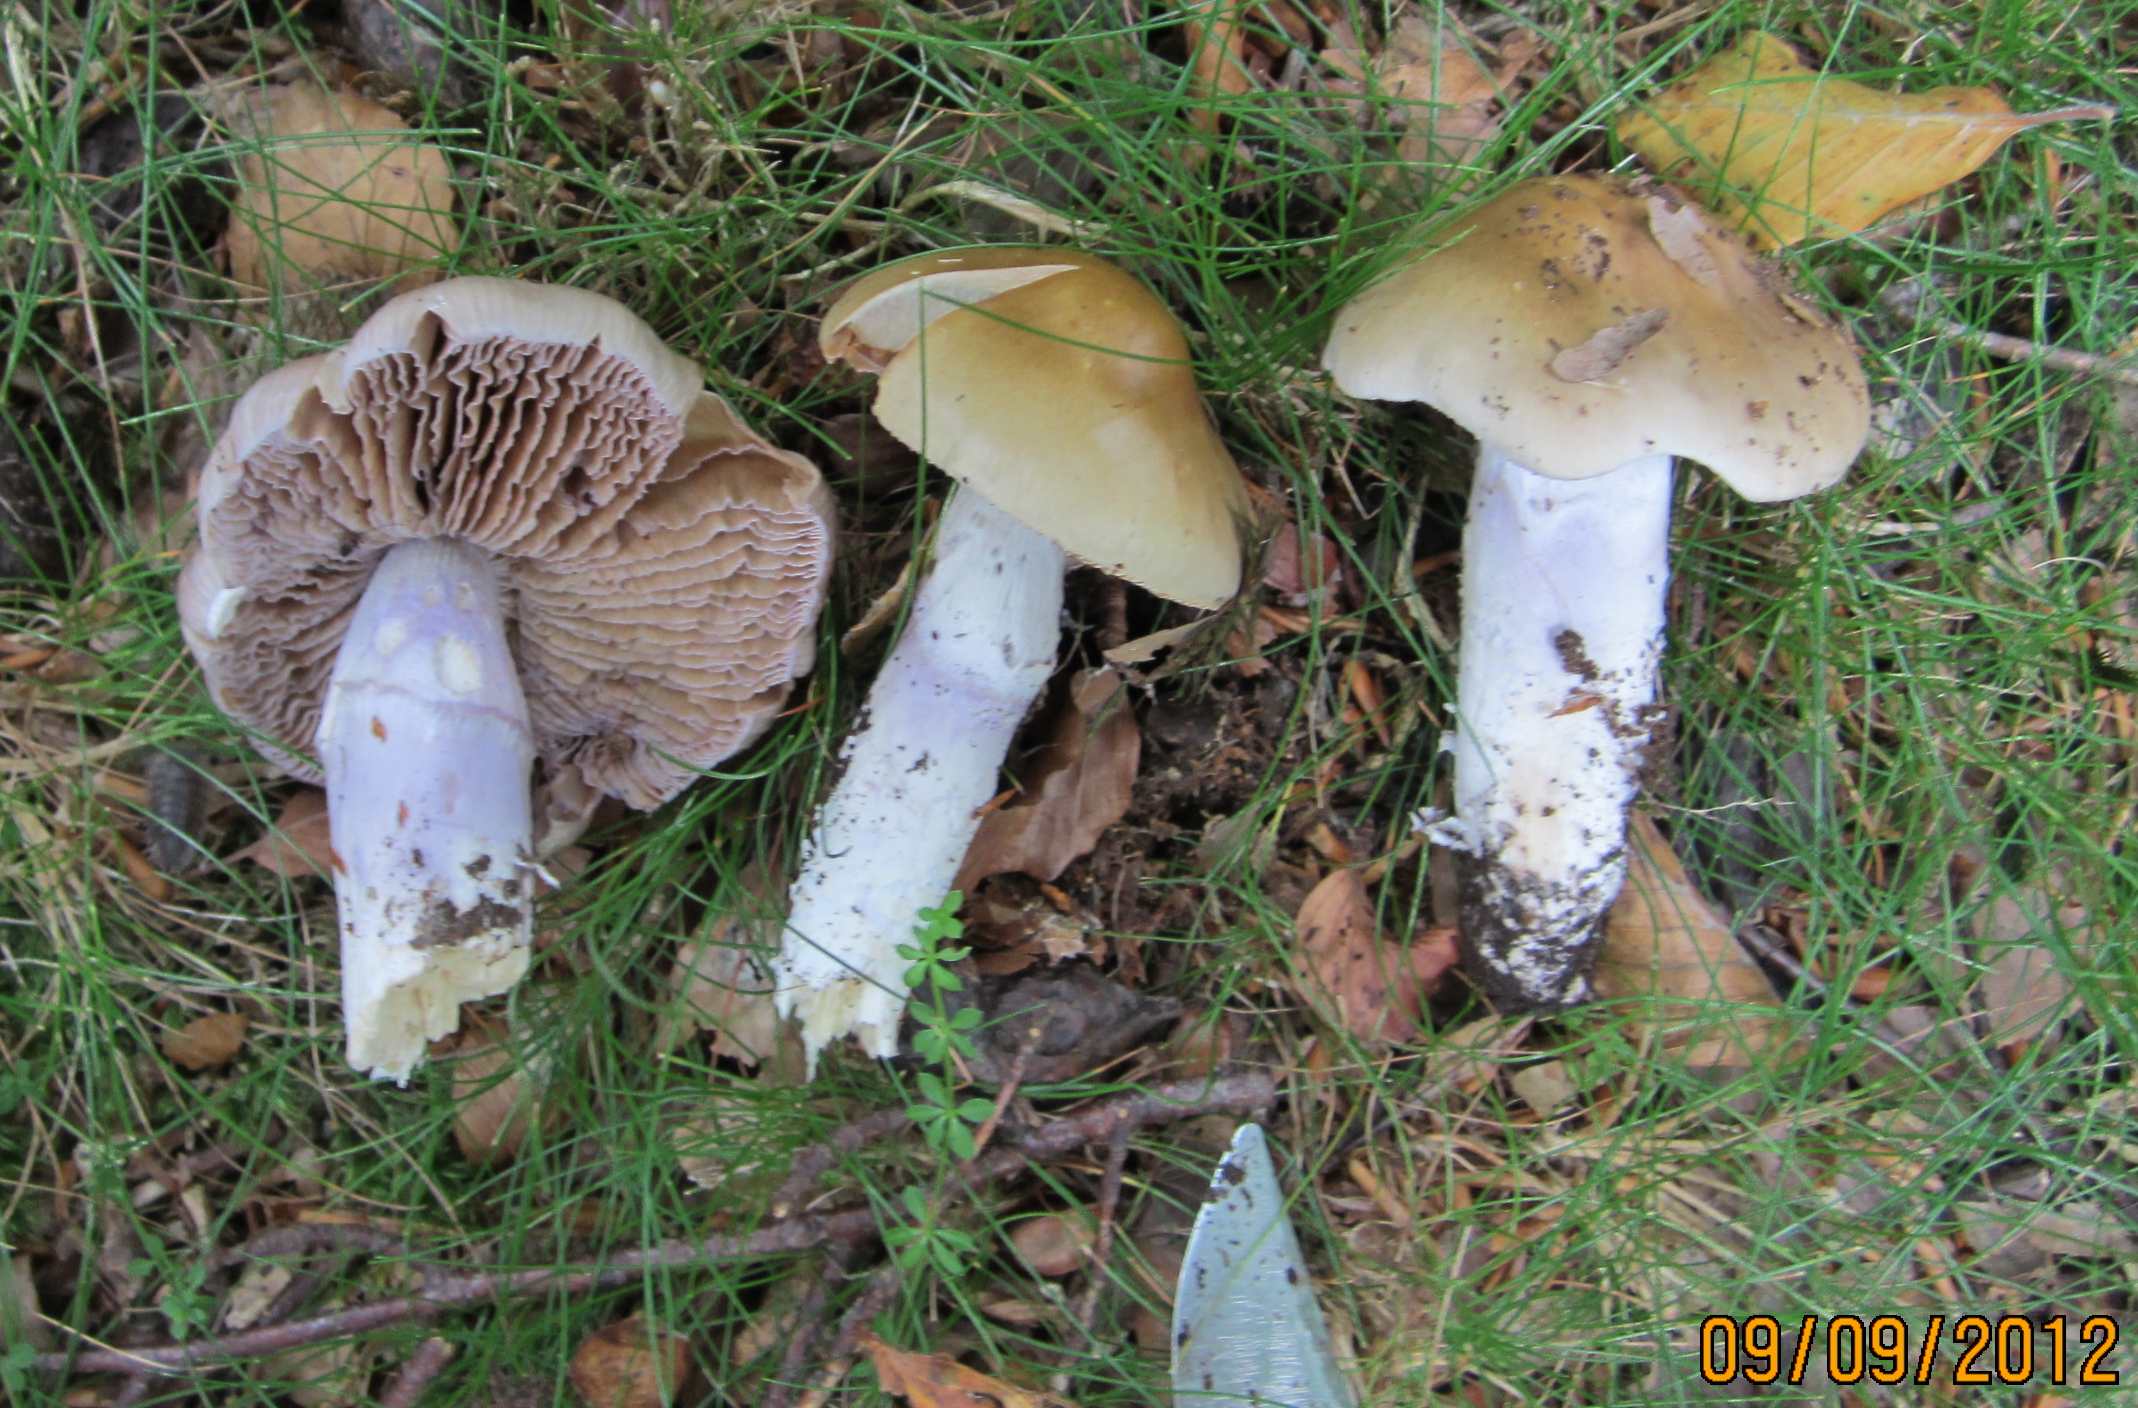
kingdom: Fungi
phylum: Basidiomycota
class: Agaricomycetes
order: Agaricales
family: Cortinariaceae
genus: Cortinarius
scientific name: Cortinarius elatior
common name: høj slørhat
